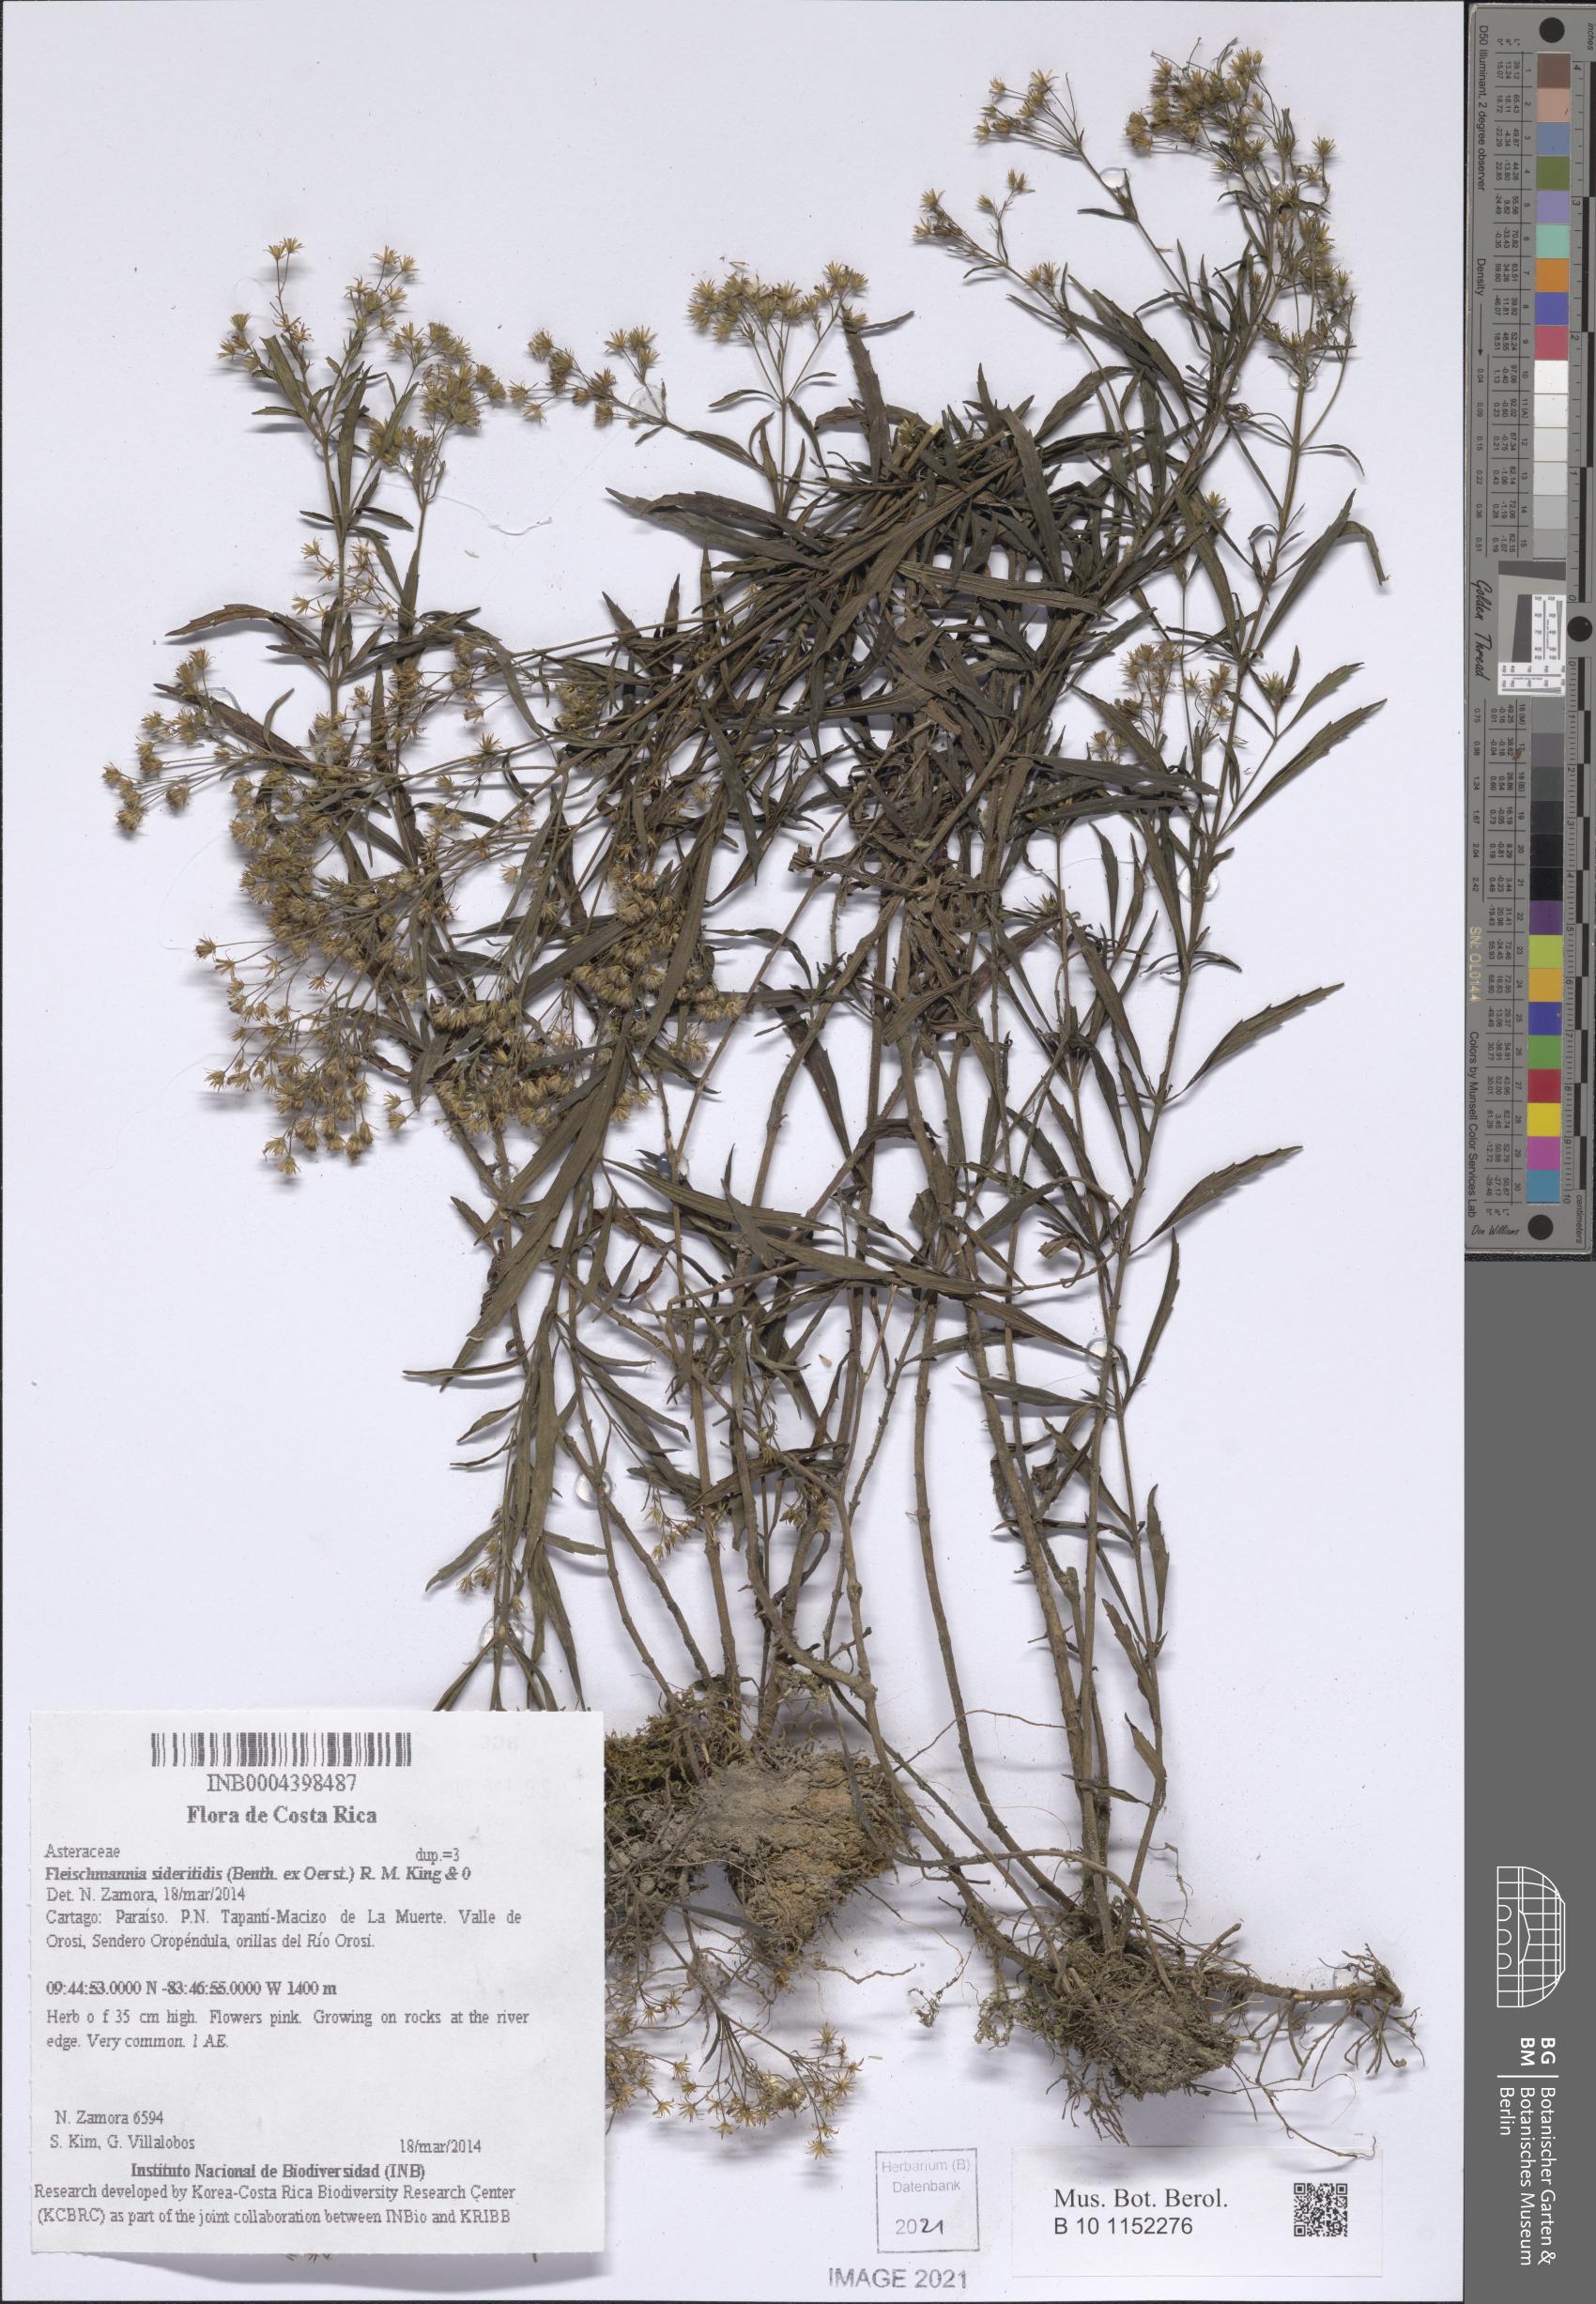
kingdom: Plantae
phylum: Tracheophyta
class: Magnoliopsida
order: Asterales
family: Asteraceae
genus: Fleischmannia
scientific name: Fleischmannia sideritidis
